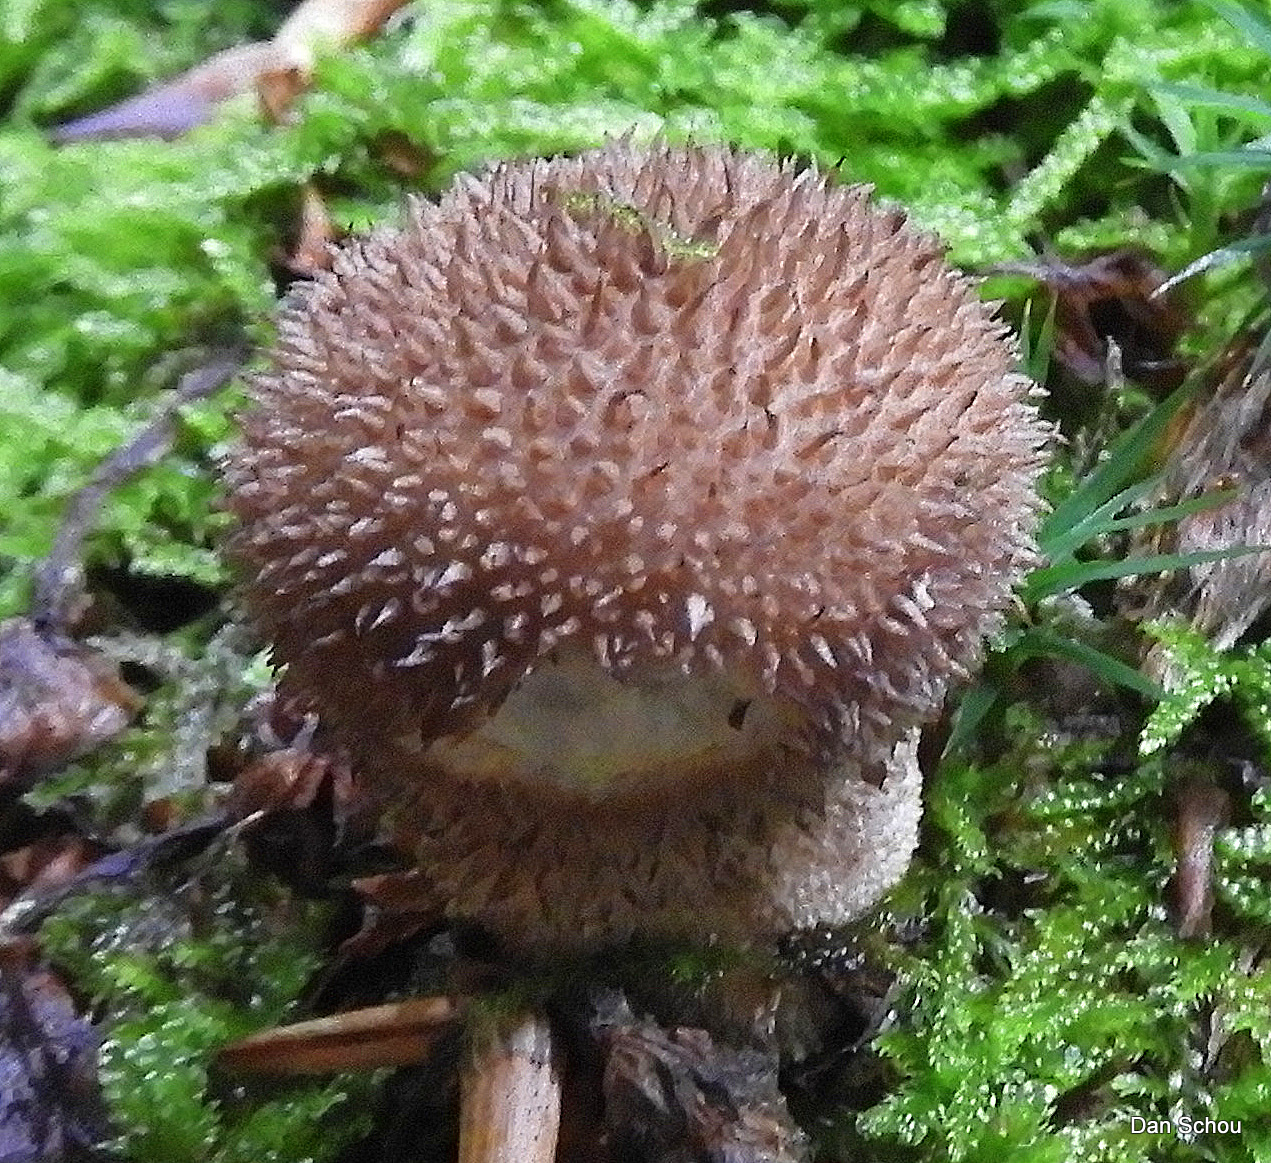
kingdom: Fungi
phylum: Basidiomycota
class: Agaricomycetes
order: Agaricales
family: Lycoperdaceae
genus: Lycoperdon
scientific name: Lycoperdon nigrescens
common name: sortagtig støvbold
